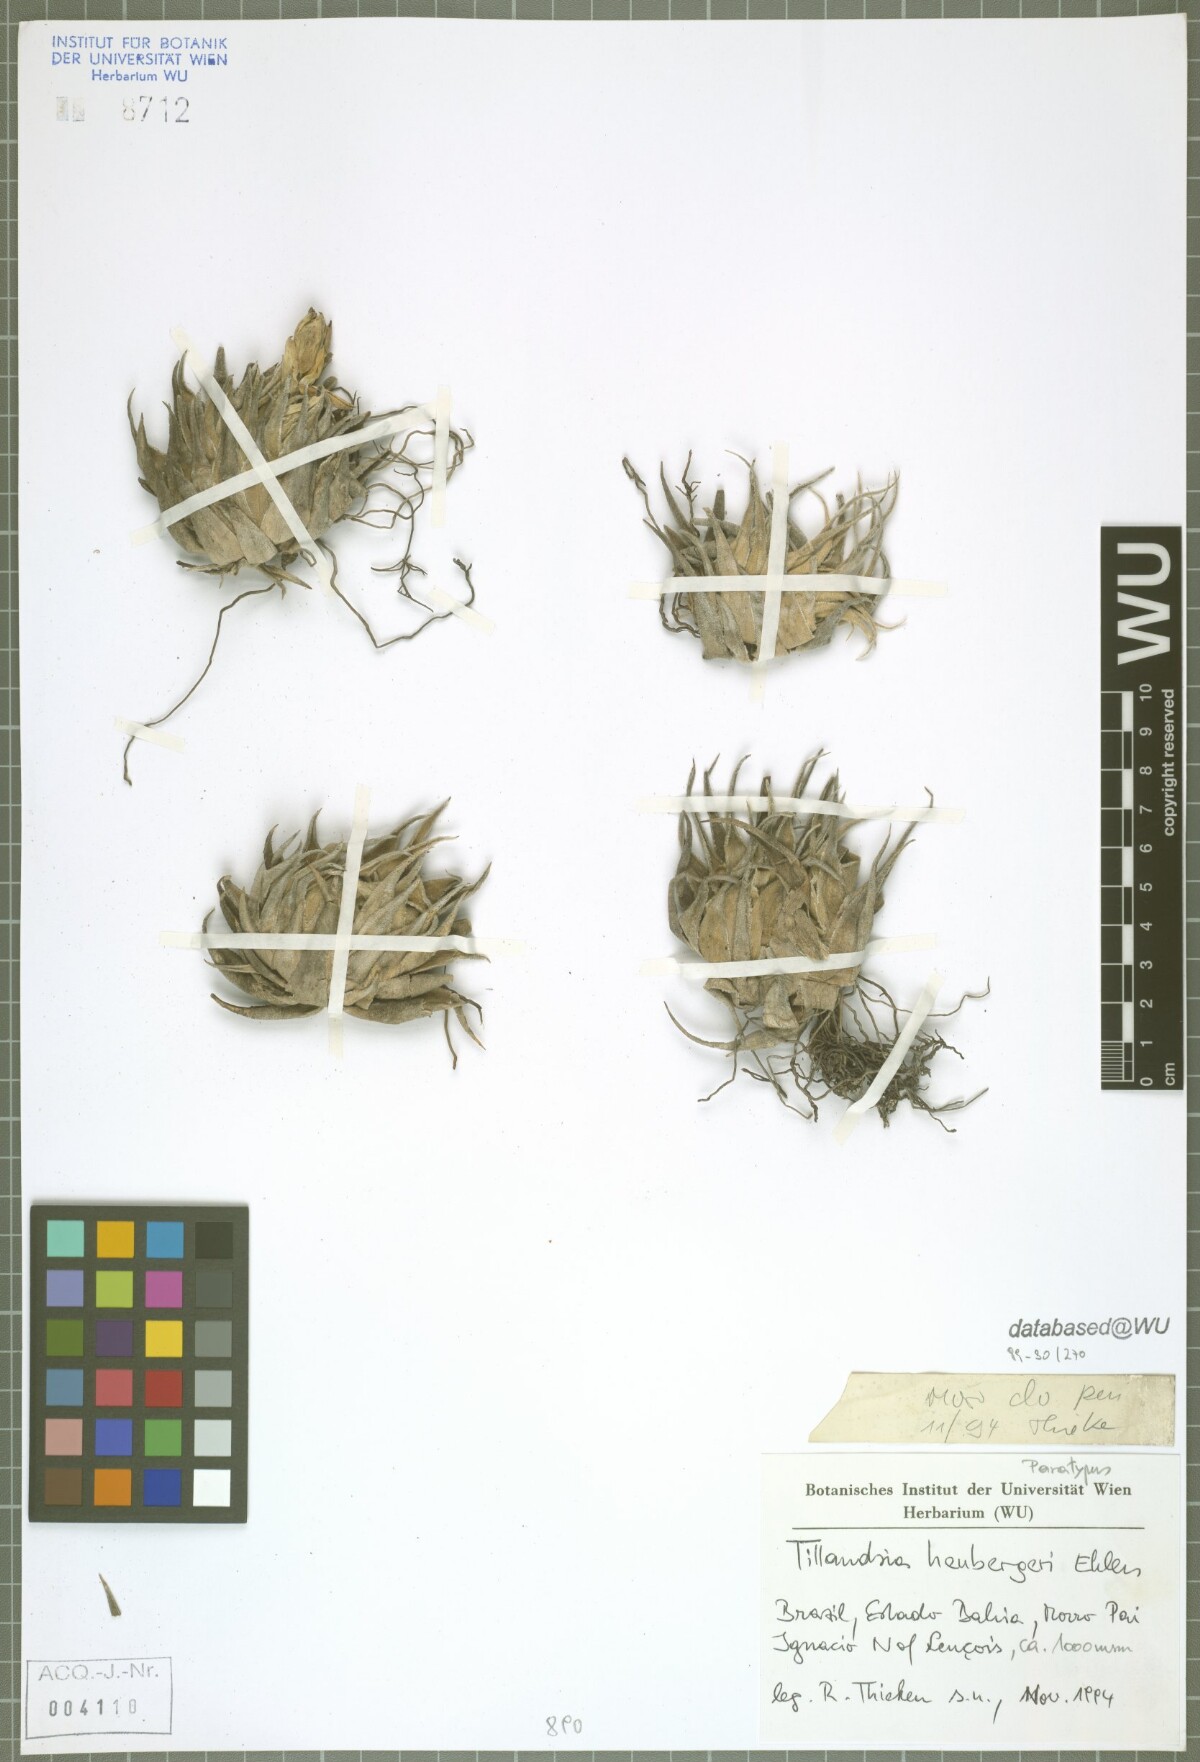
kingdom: Plantae
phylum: Tracheophyta
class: Liliopsida
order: Poales
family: Bromeliaceae
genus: Tillandsia
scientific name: Tillandsia heubergeri
